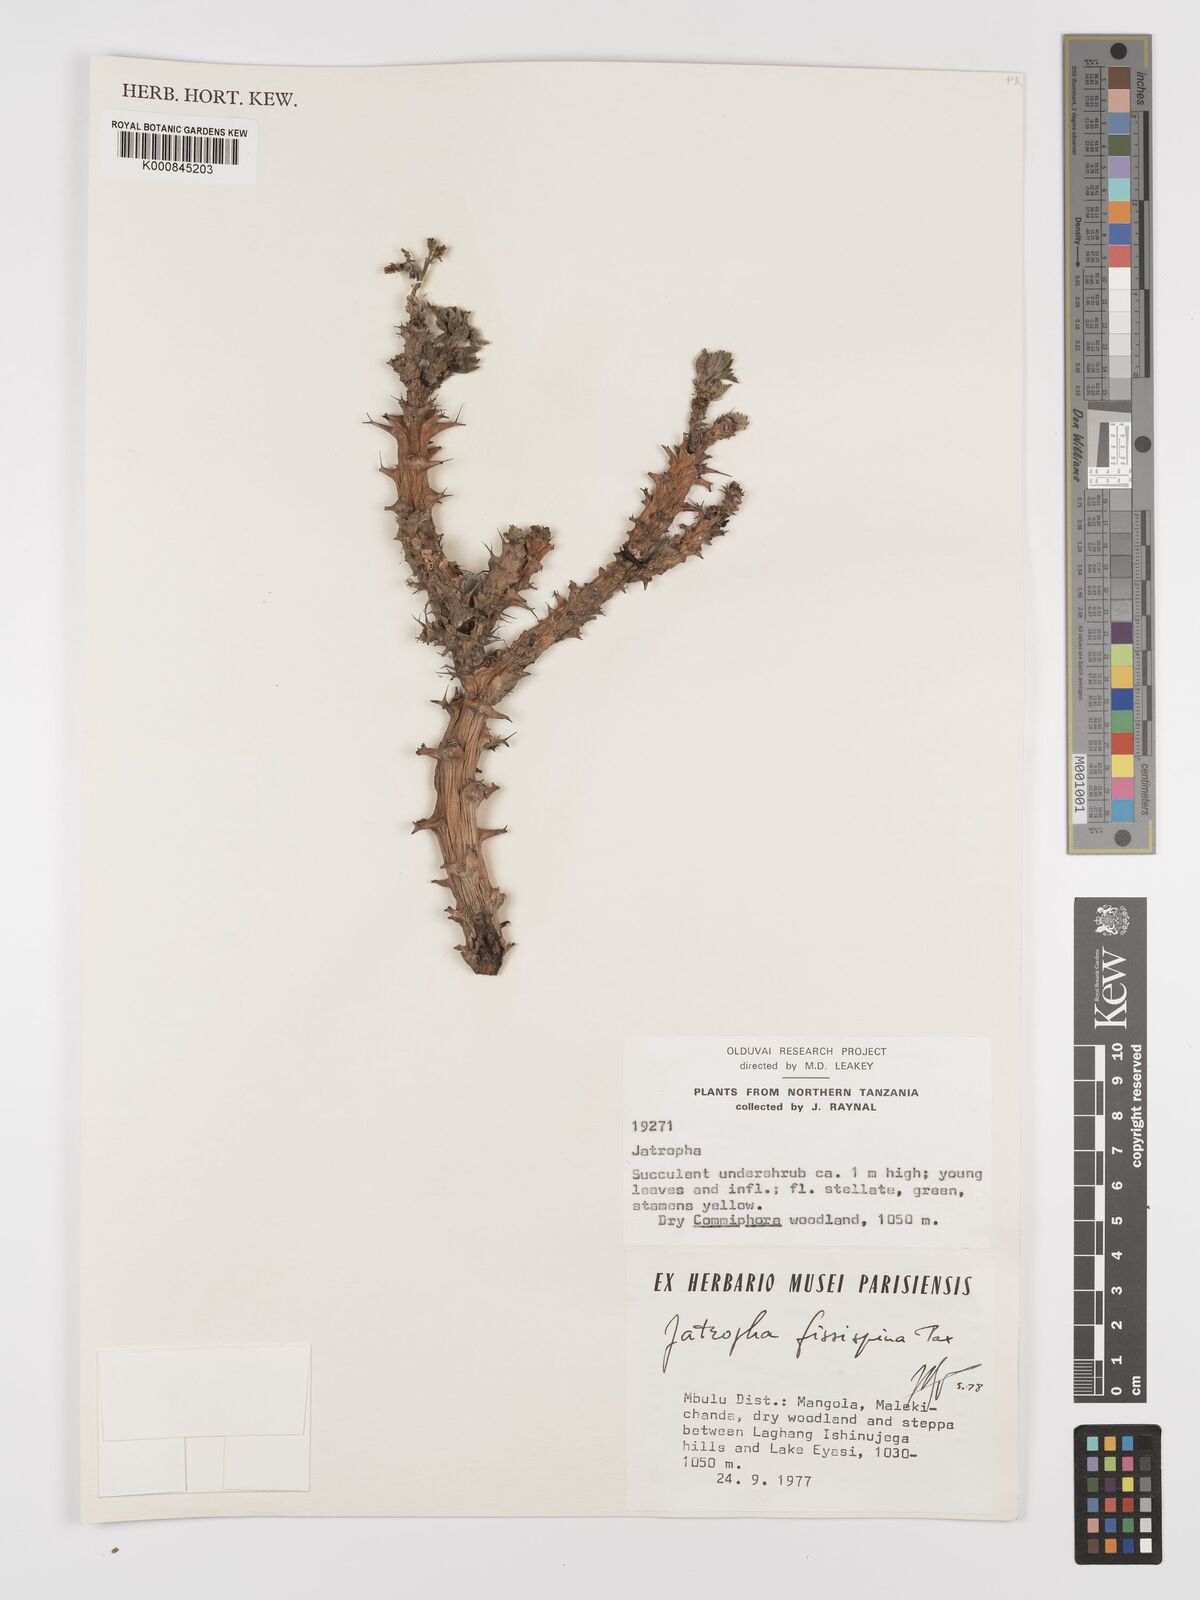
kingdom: Plantae
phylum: Tracheophyta
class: Magnoliopsida
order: Malpighiales
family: Euphorbiaceae
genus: Jatropha
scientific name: Jatropha ellenbeckii
